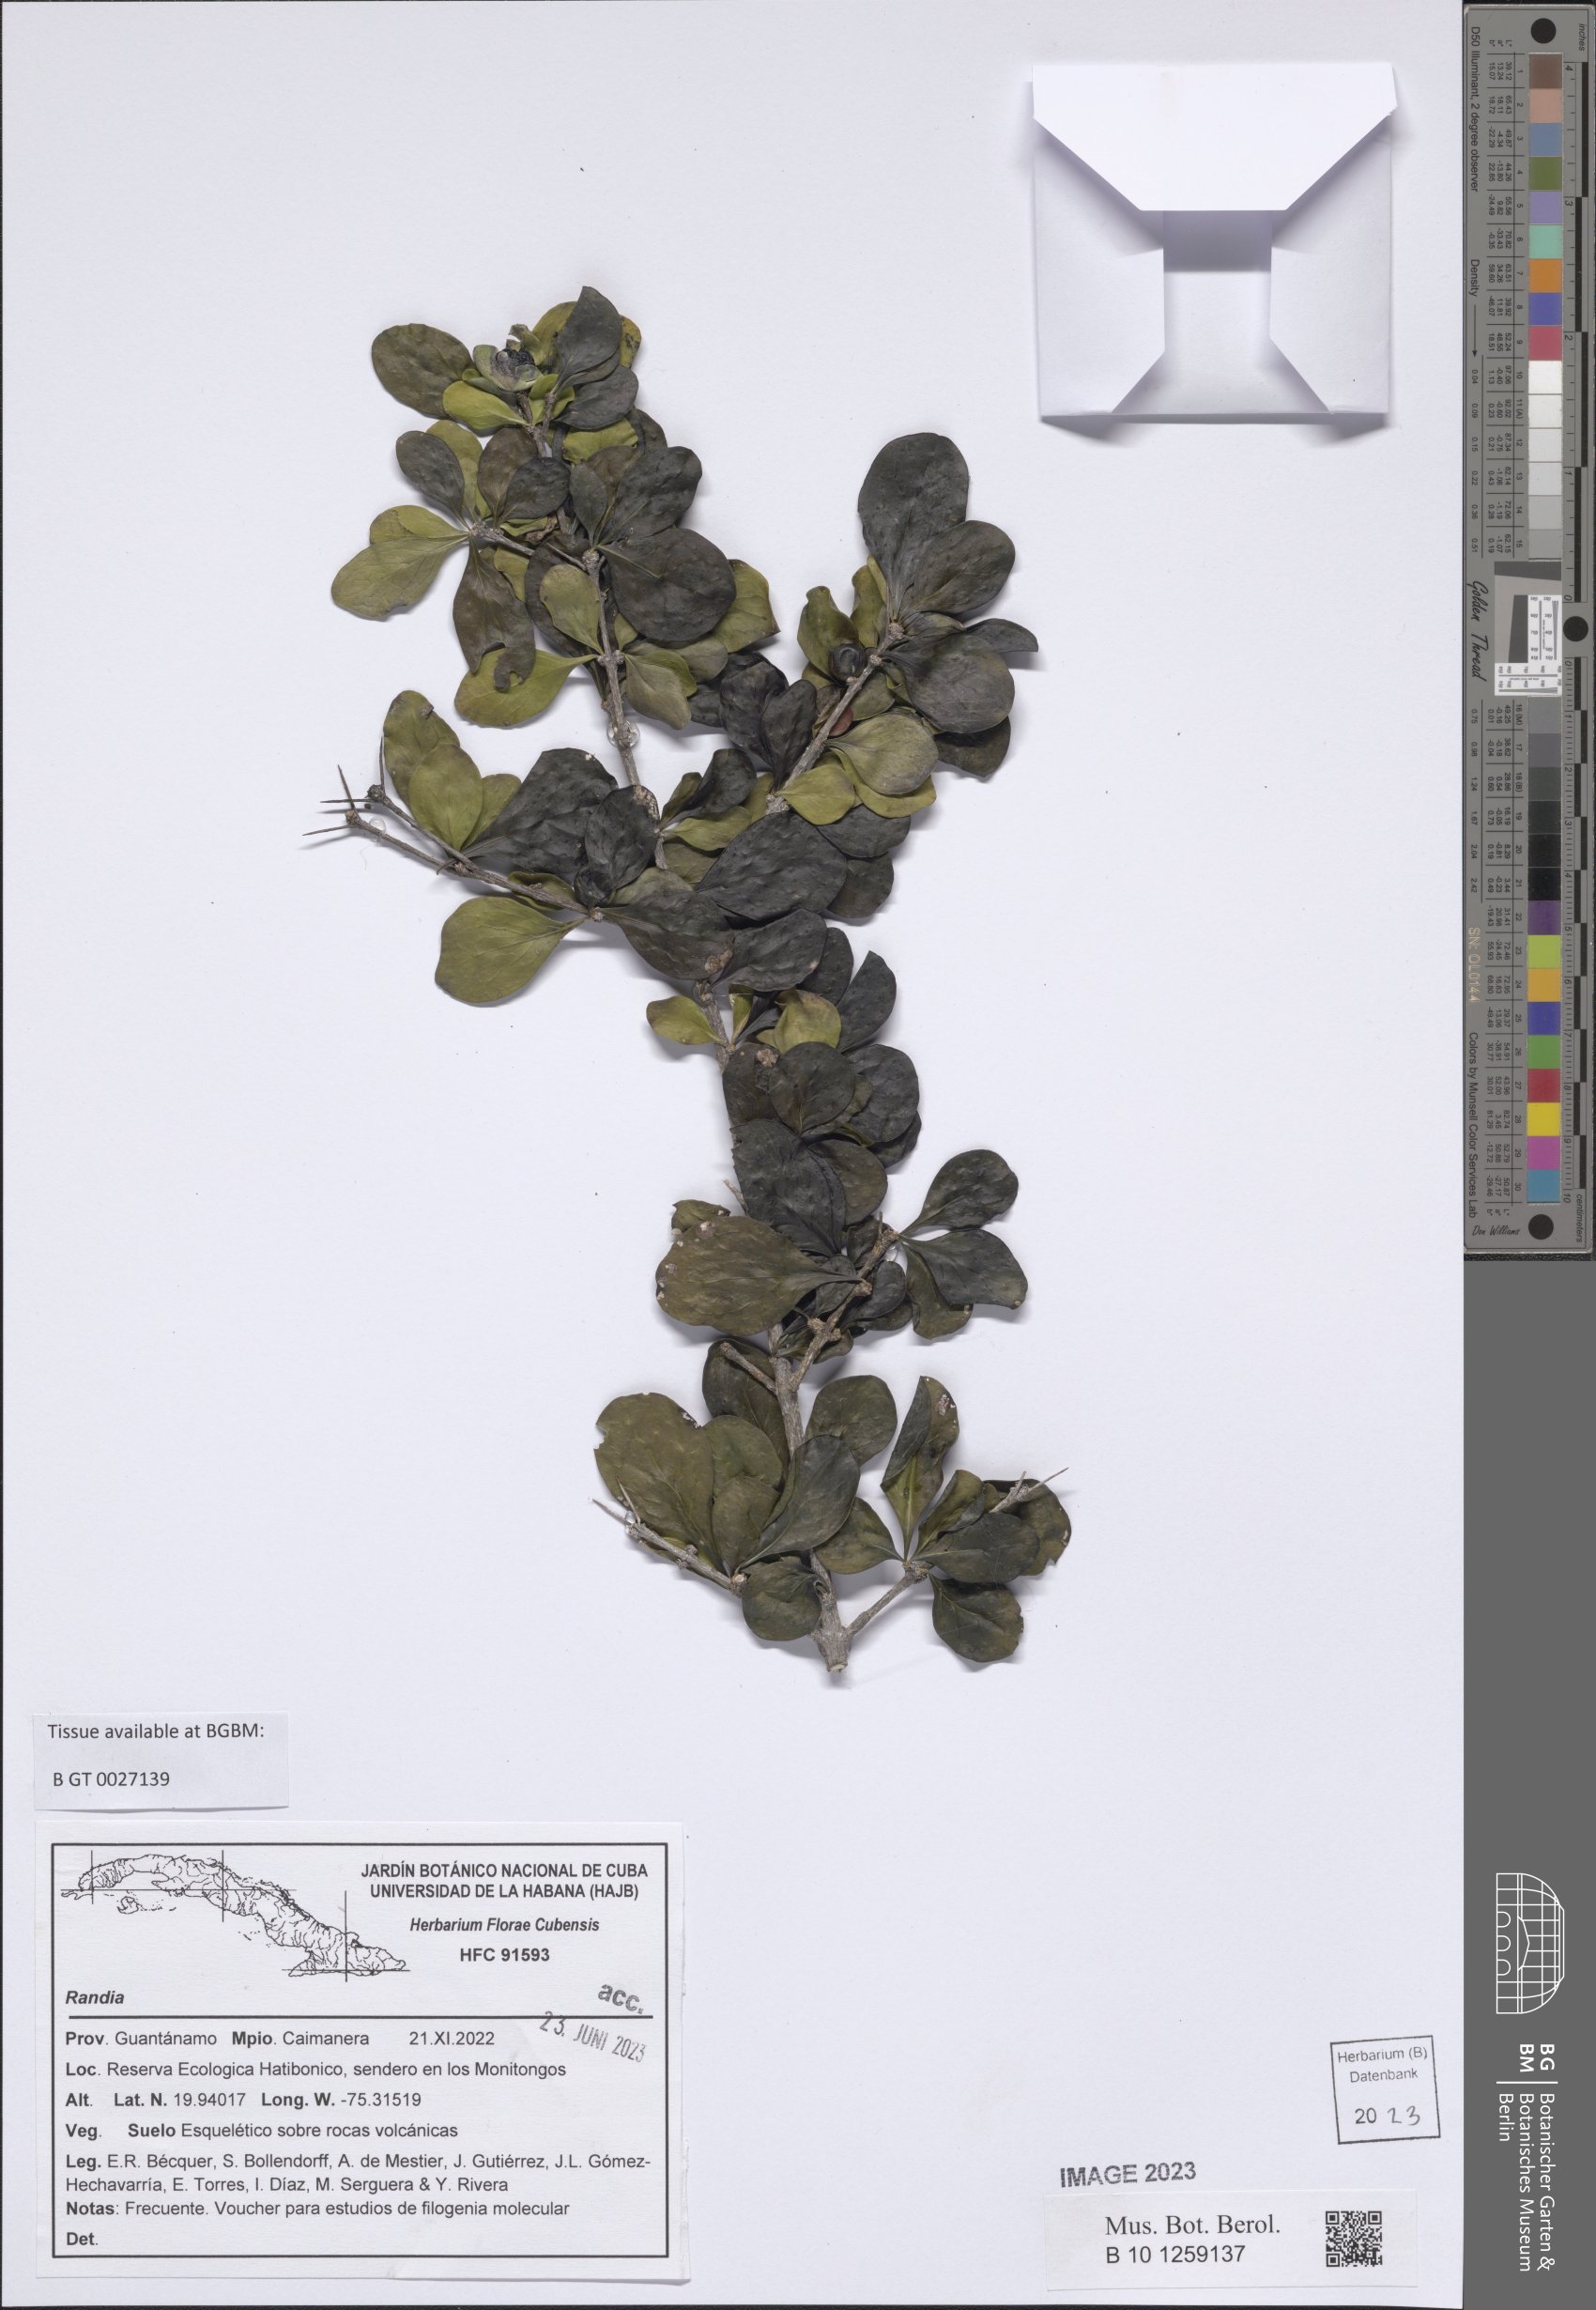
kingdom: Plantae
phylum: Tracheophyta
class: Magnoliopsida
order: Gentianales
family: Rubiaceae
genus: Randia
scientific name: Randia
